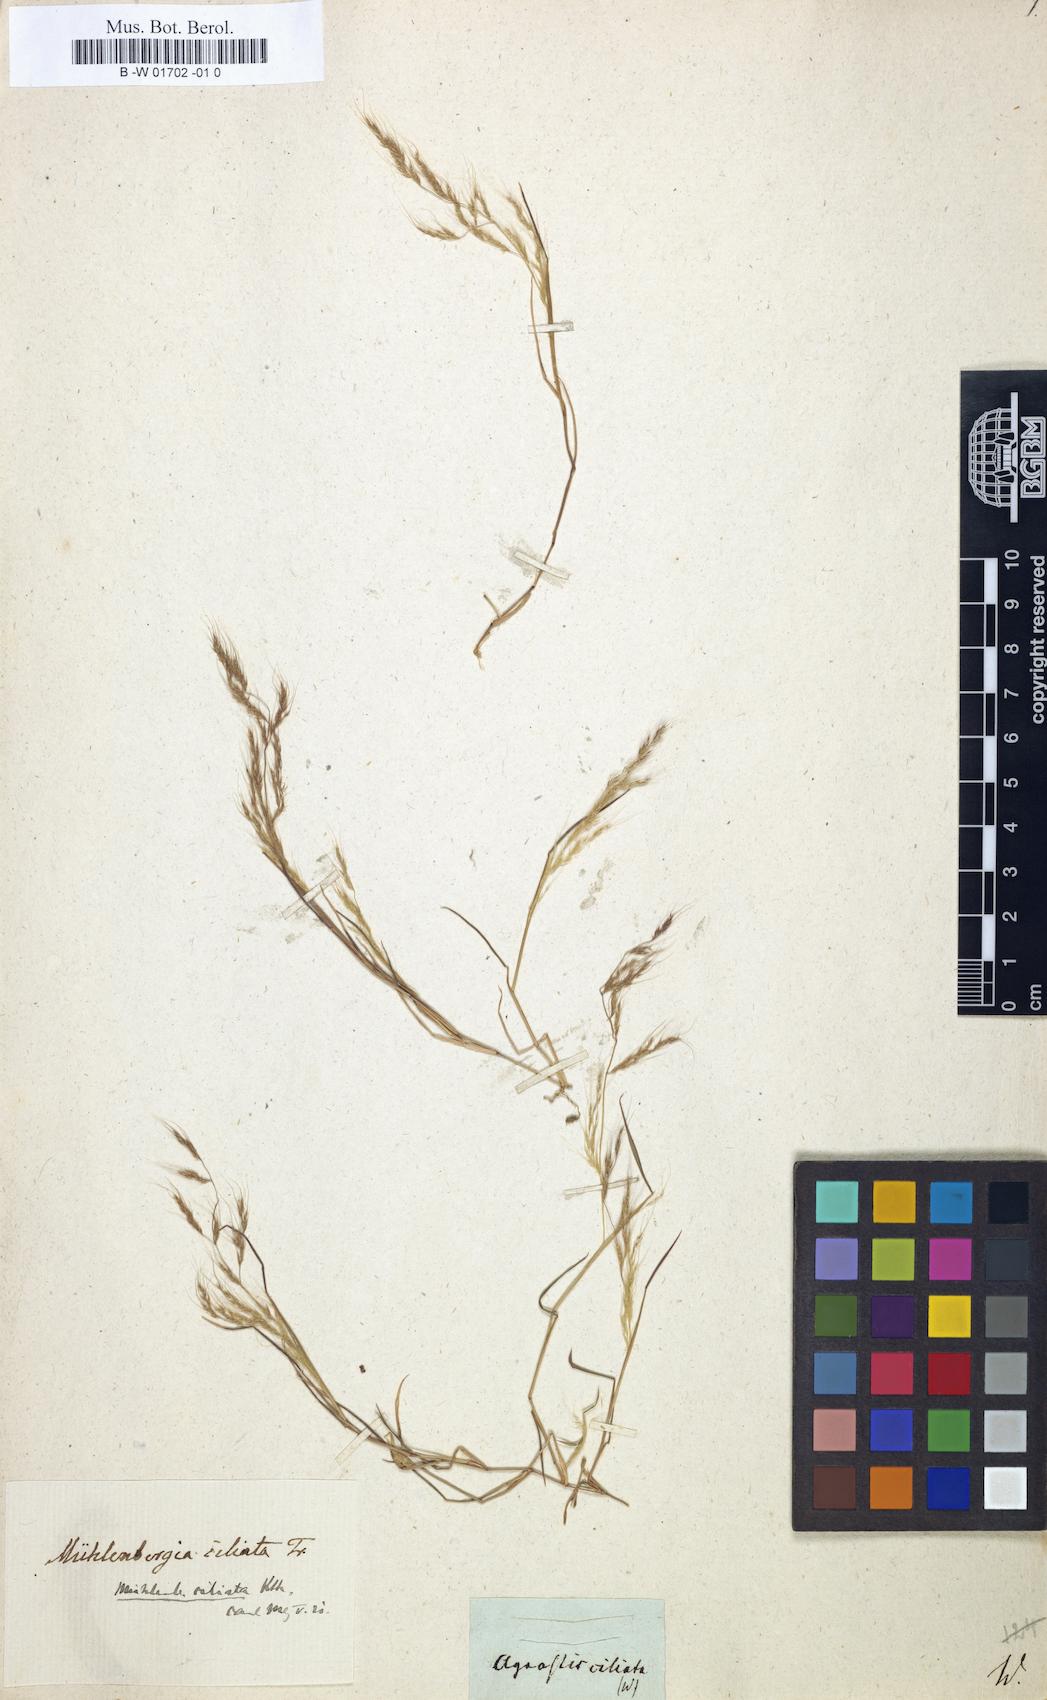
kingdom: Plantae
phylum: Tracheophyta
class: Liliopsida
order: Poales
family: Poaceae
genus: Arundinella
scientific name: Arundinella hirta
